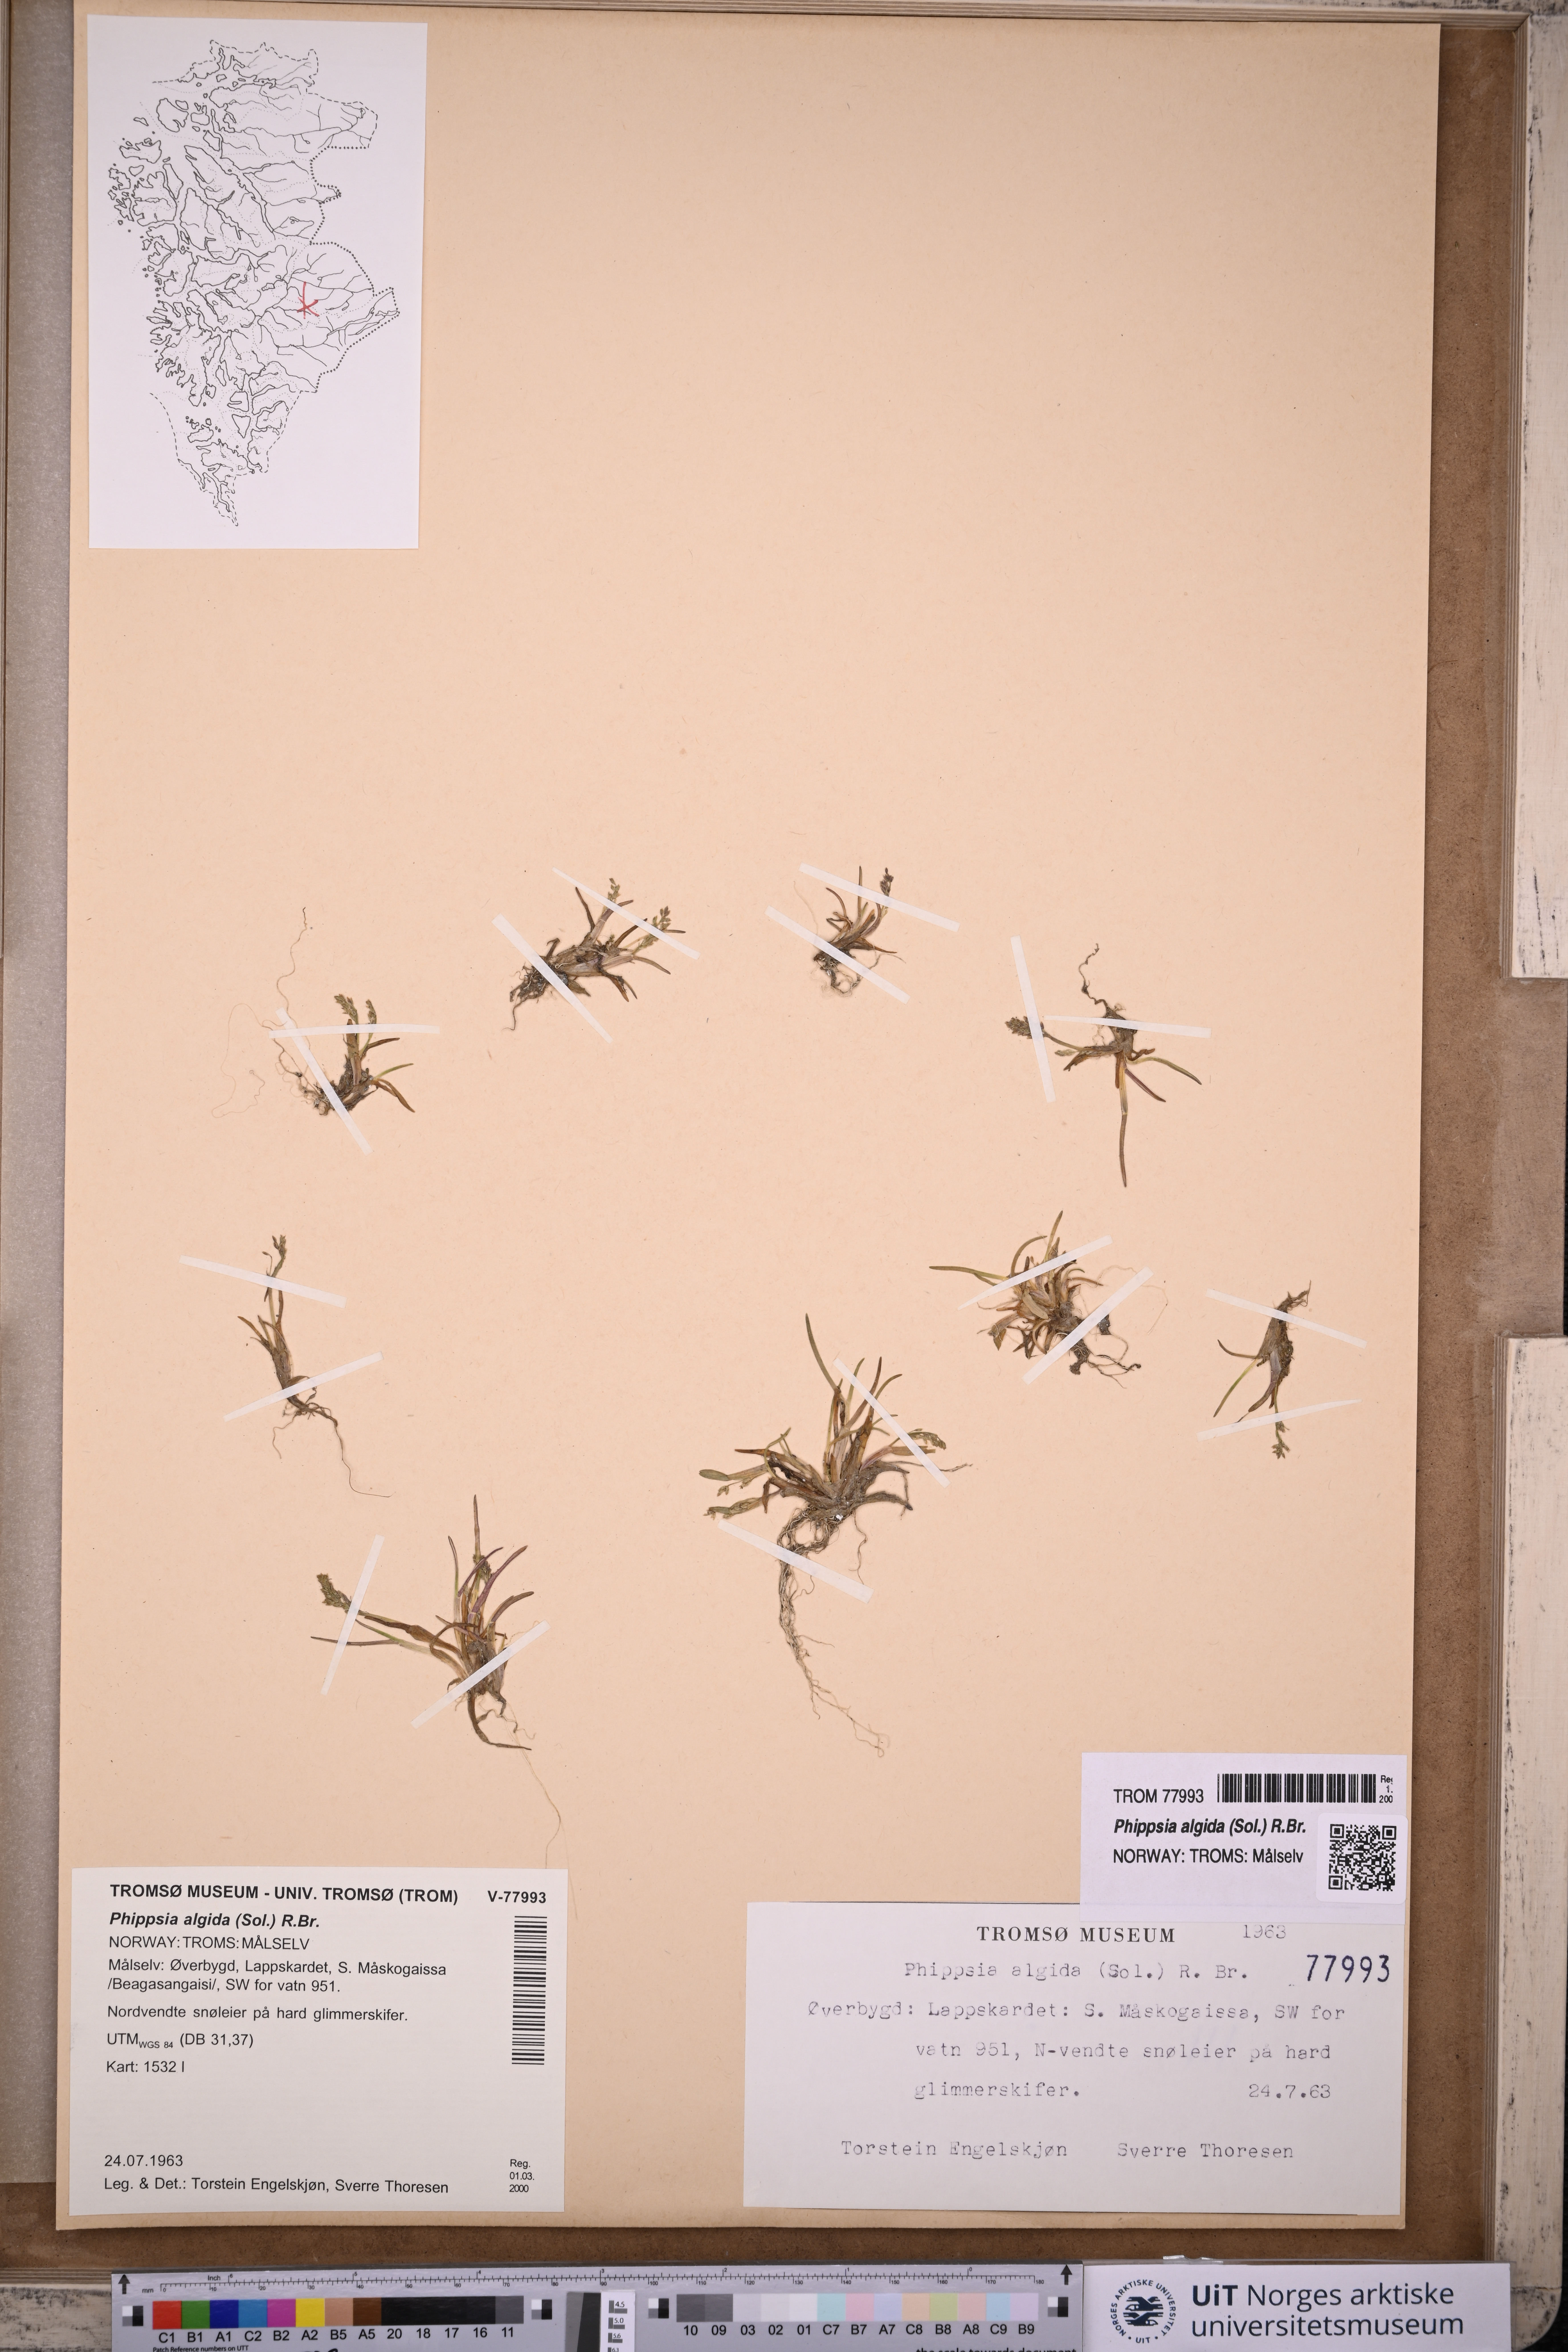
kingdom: Plantae
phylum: Tracheophyta
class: Liliopsida
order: Poales
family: Poaceae
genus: Phippsia
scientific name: Phippsia algida
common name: Ice grass
